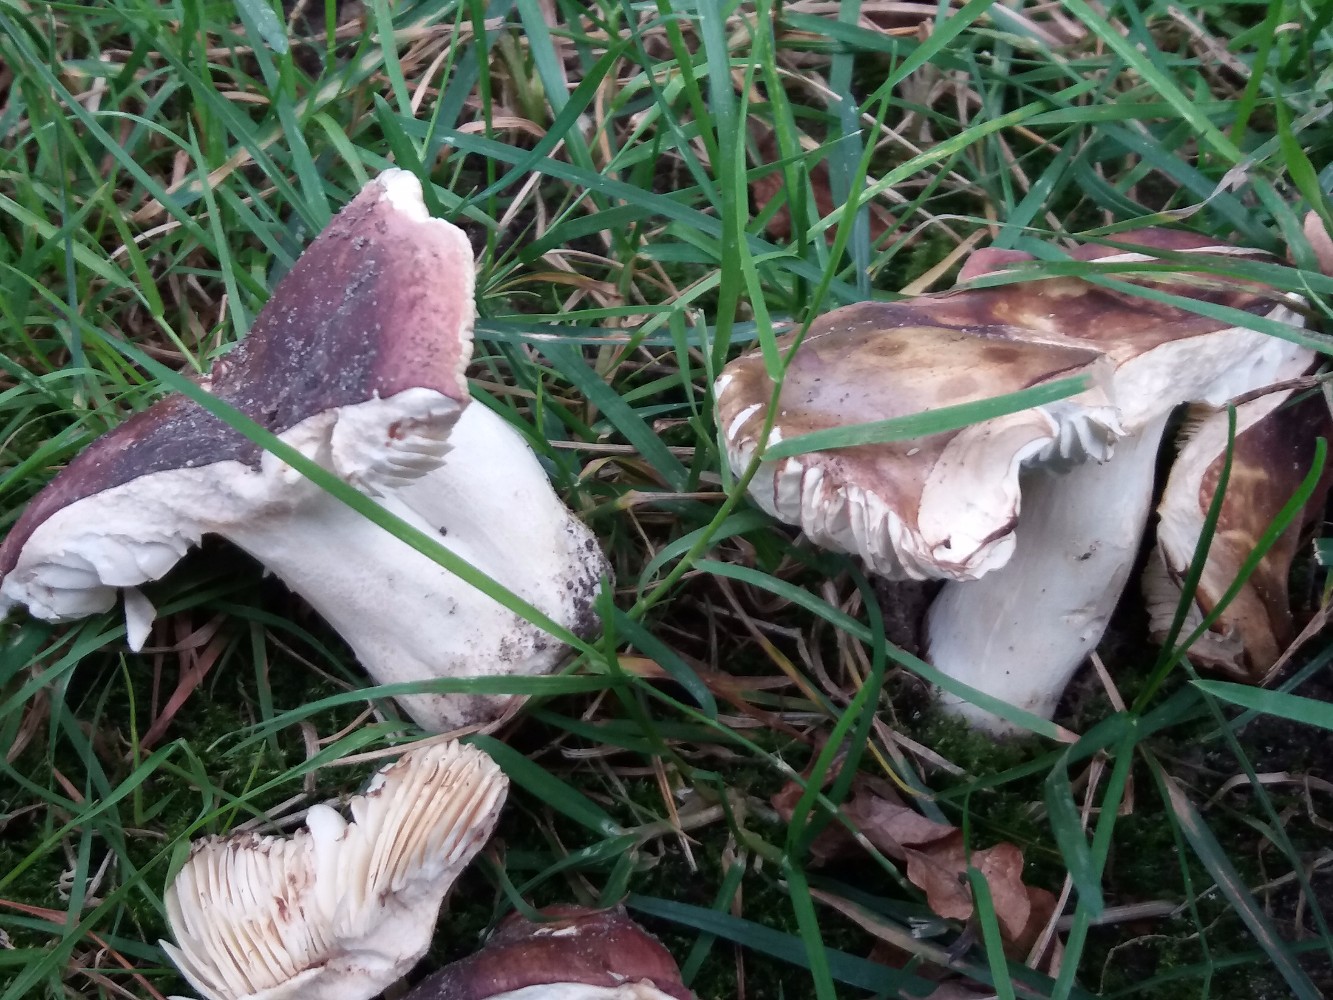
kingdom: Fungi
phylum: Basidiomycota
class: Agaricomycetes
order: Russulales
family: Russulaceae
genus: Russula
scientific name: Russula graveolens
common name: bugtet skørhat
